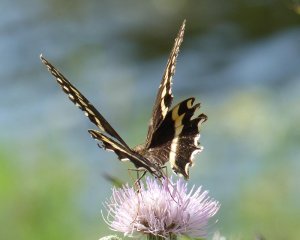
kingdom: Animalia
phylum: Arthropoda
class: Insecta
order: Lepidoptera
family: Papilionidae
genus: Pterourus
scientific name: Pterourus palamedes
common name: Palamedes Swallowtail
